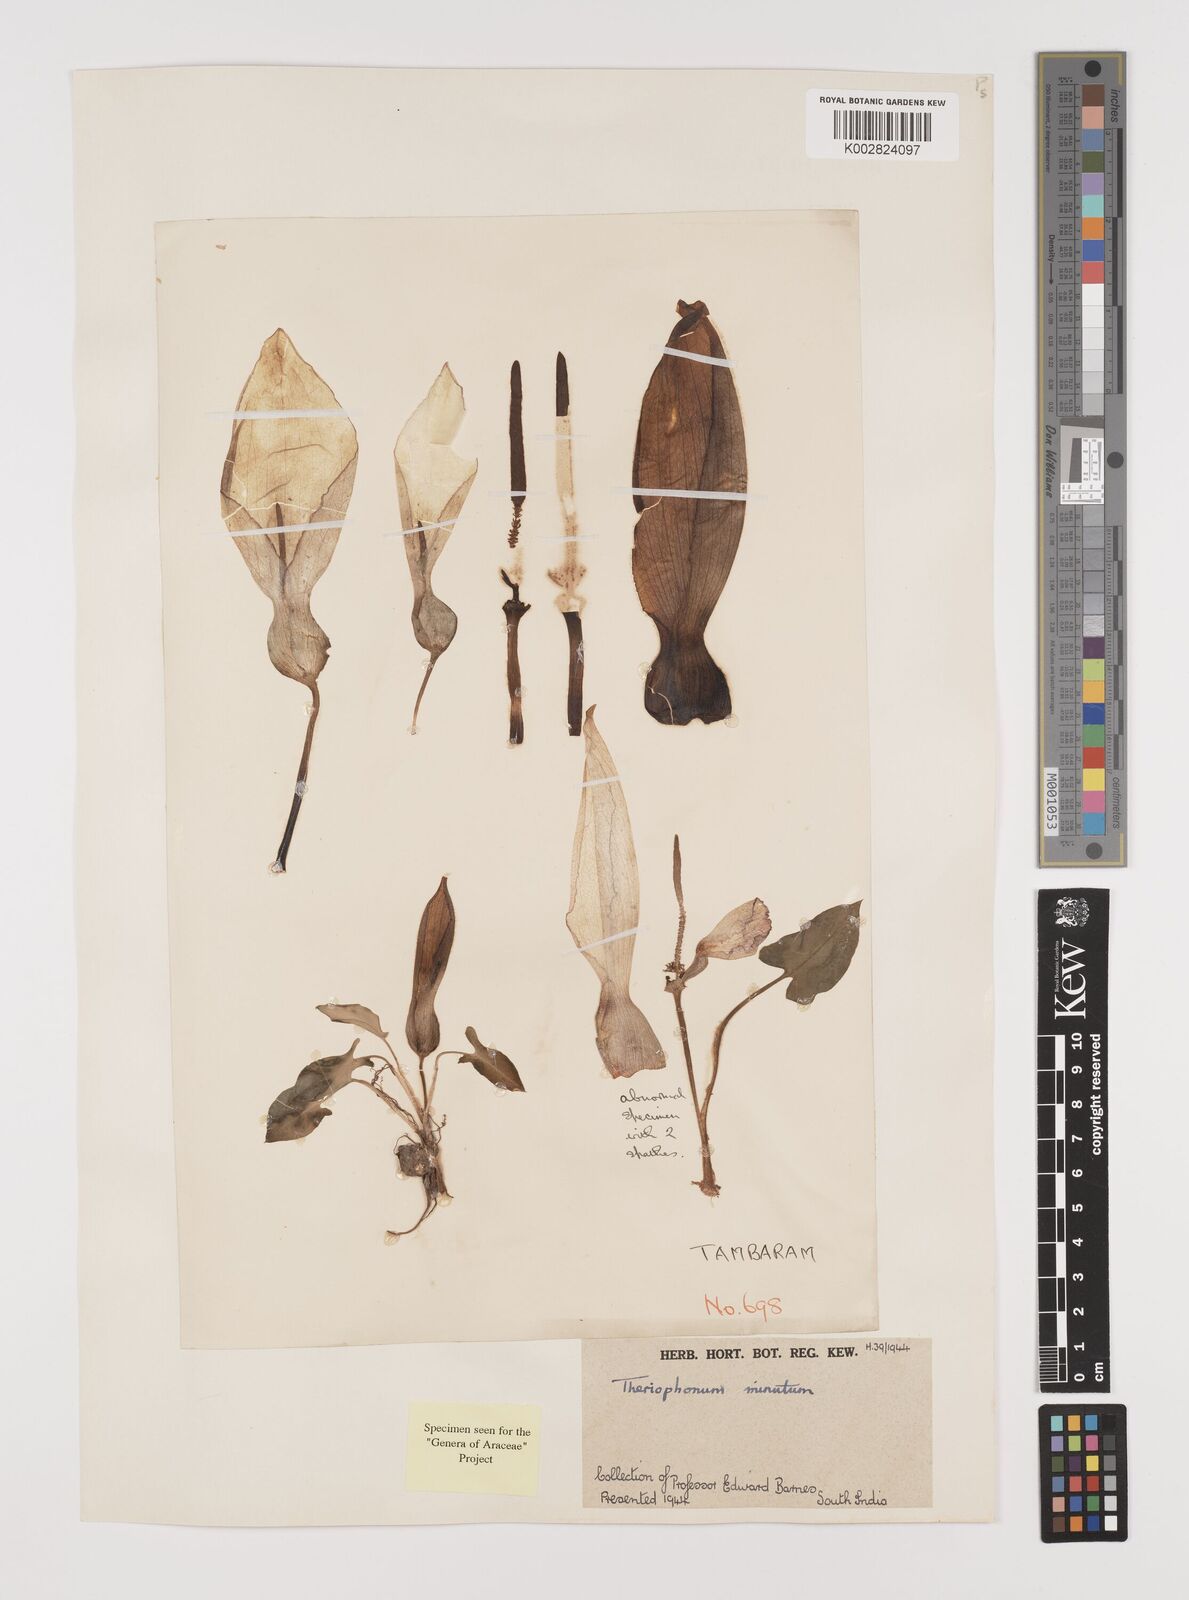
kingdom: Plantae
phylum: Tracheophyta
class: Liliopsida
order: Alismatales
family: Araceae
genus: Theriophonum
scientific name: Theriophonum minutum
